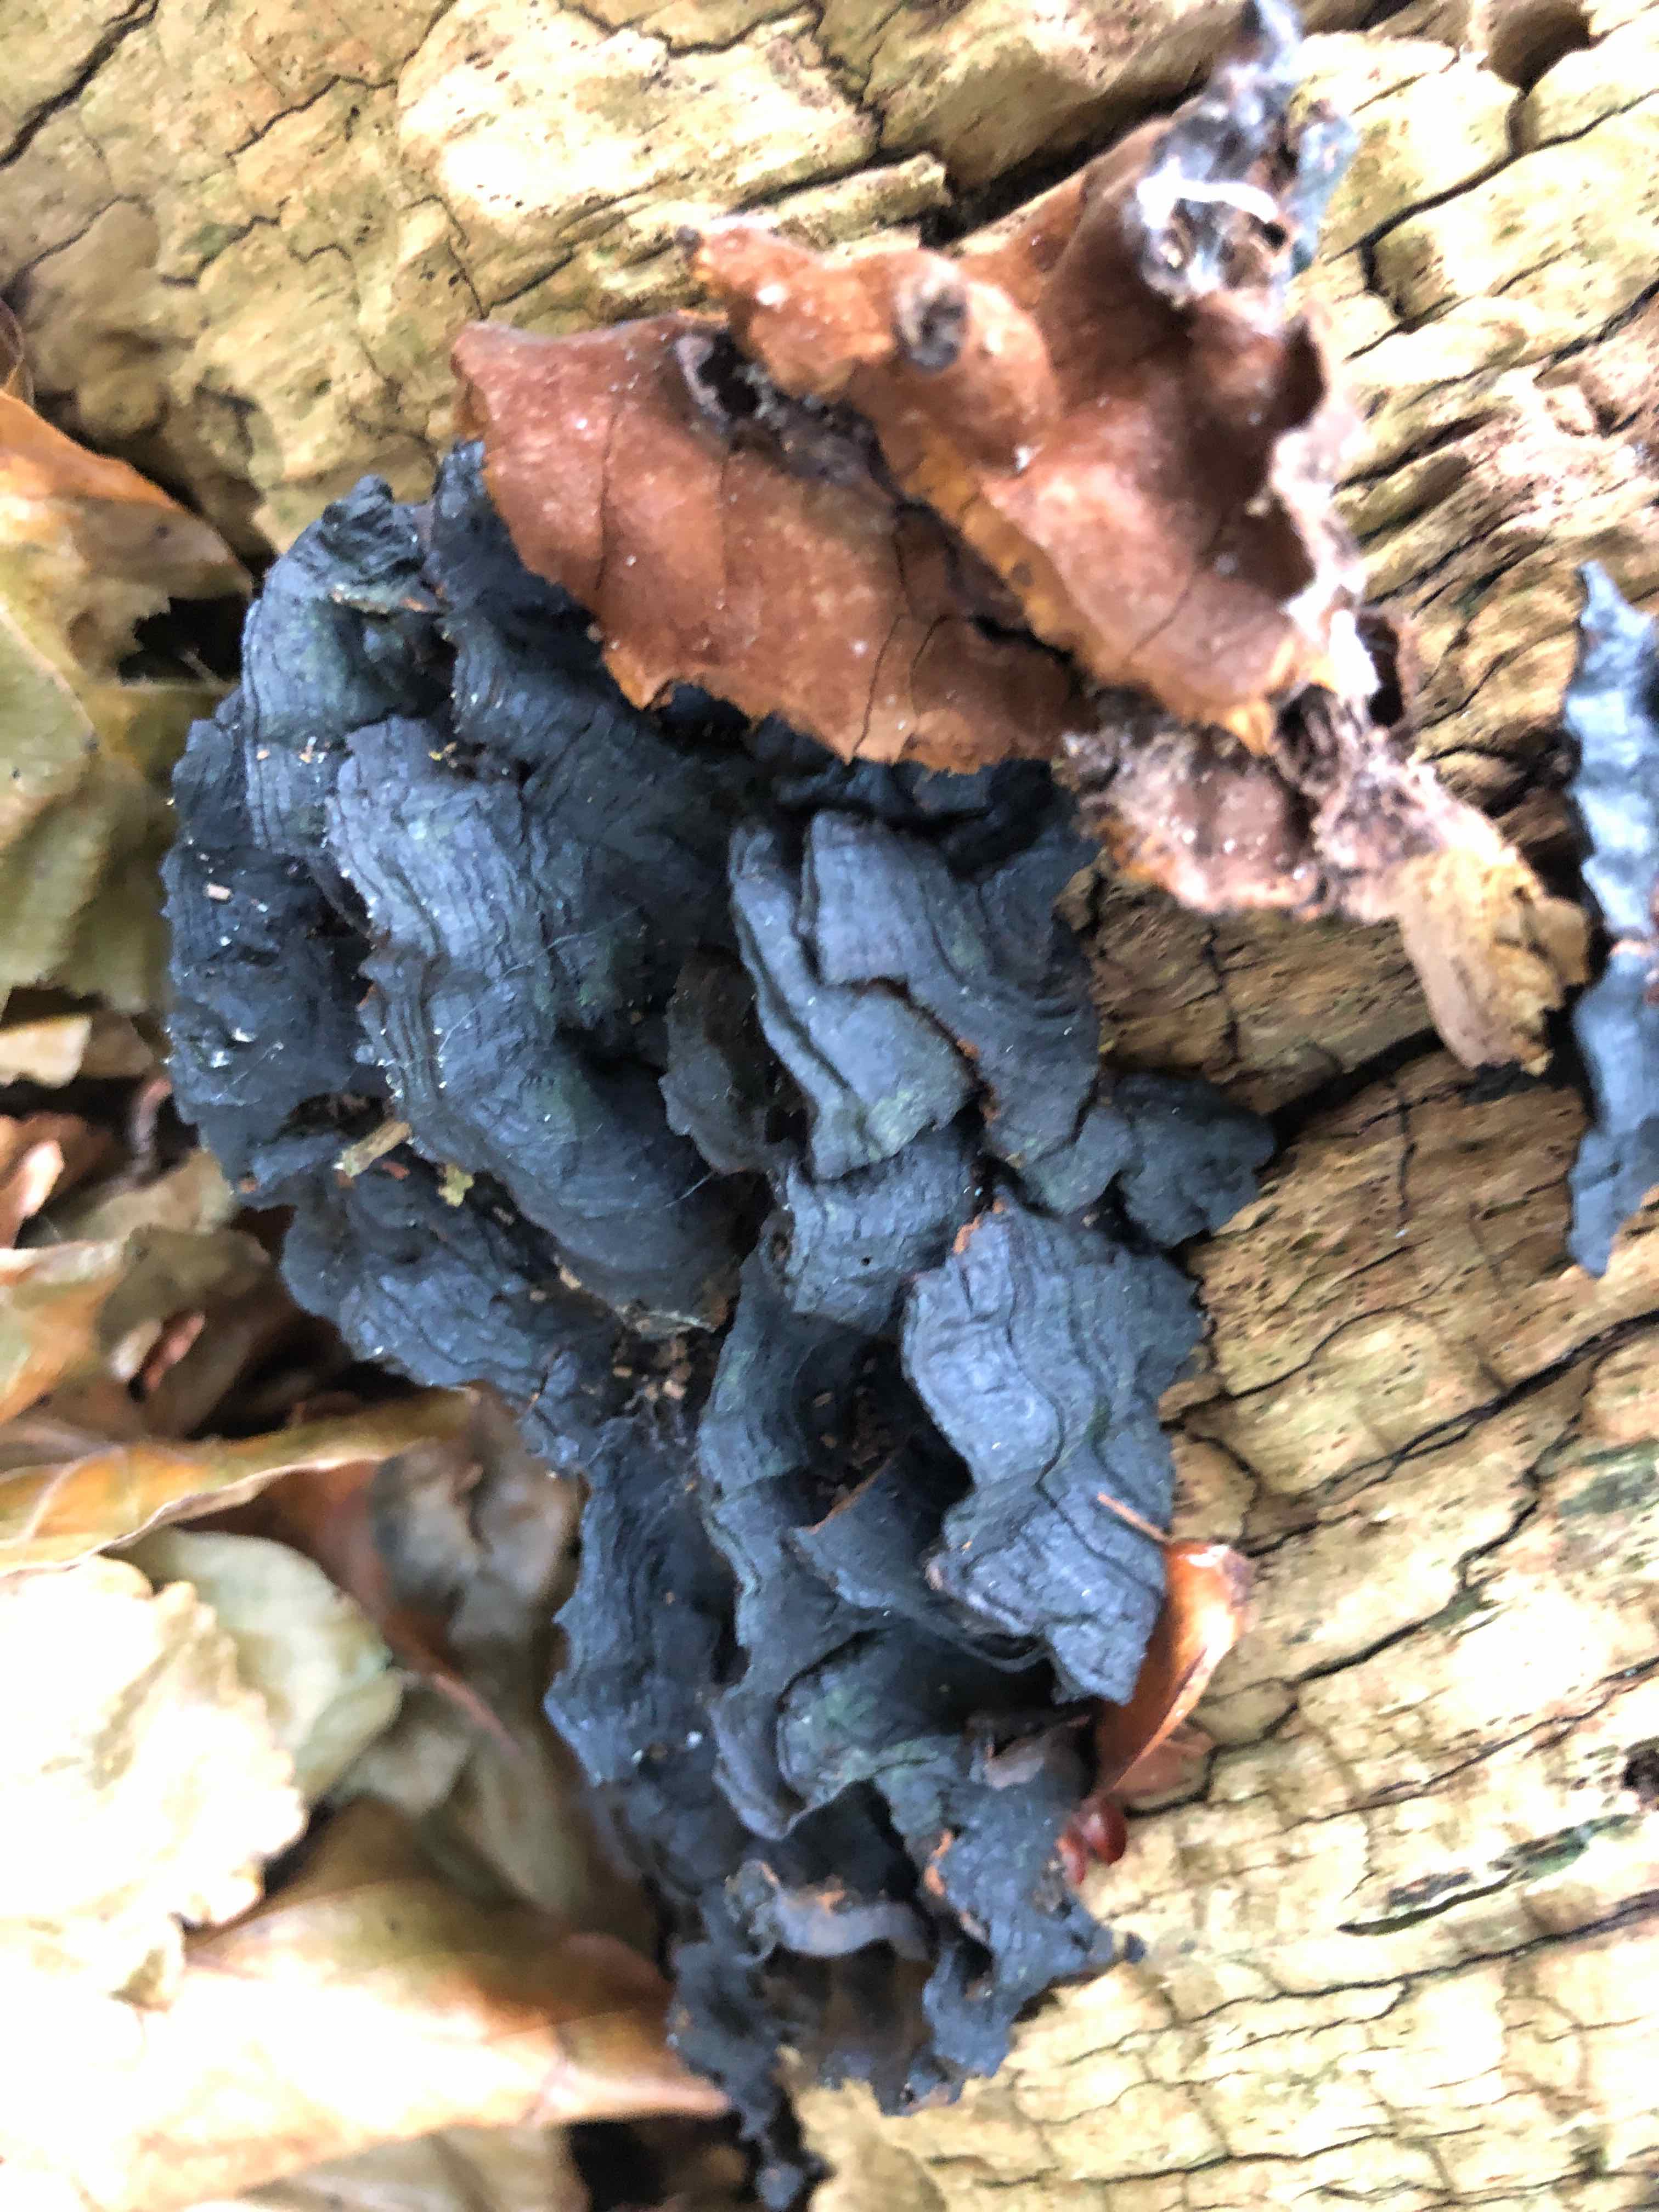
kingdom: Fungi
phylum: Basidiomycota
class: Agaricomycetes
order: Hymenochaetales
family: Hymenochaetaceae
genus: Hymenochaete
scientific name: Hymenochaete rubiginosa
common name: stiv ruslædersvamp
